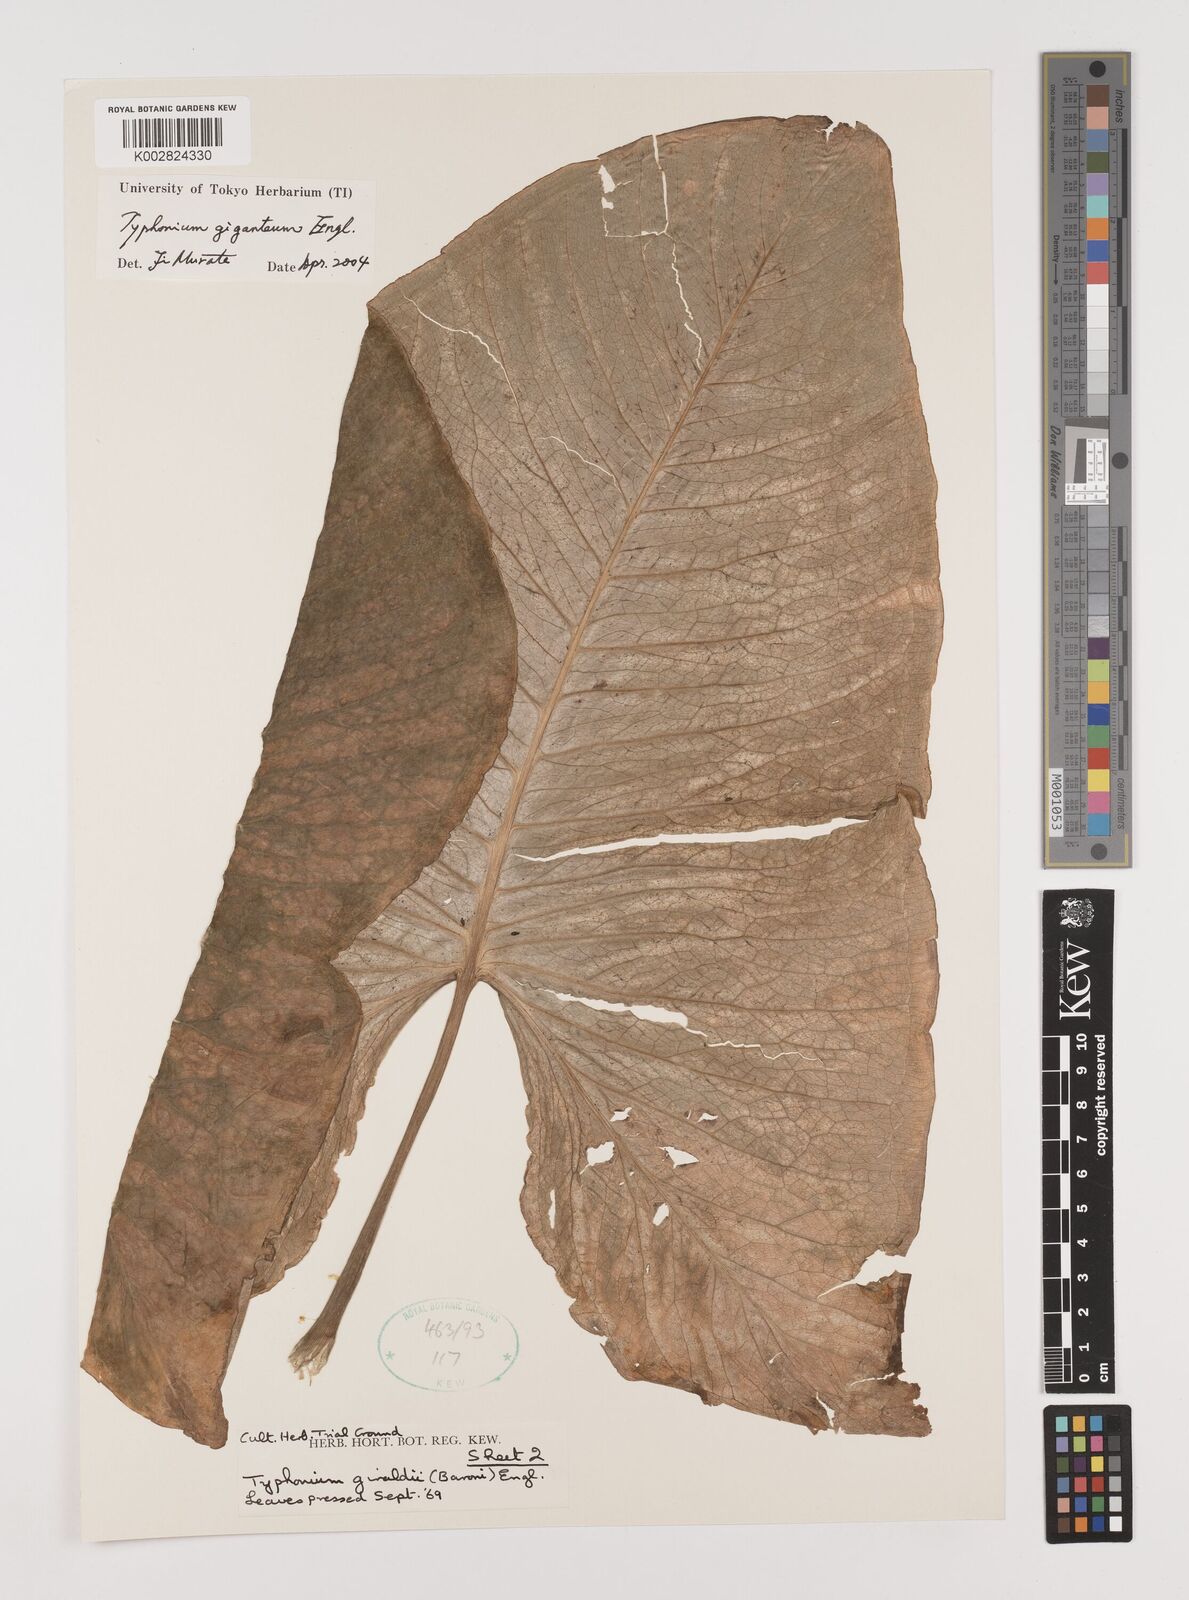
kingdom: Plantae
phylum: Tracheophyta
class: Liliopsida
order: Alismatales
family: Araceae
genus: Sauromatum
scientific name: Sauromatum giganteum
